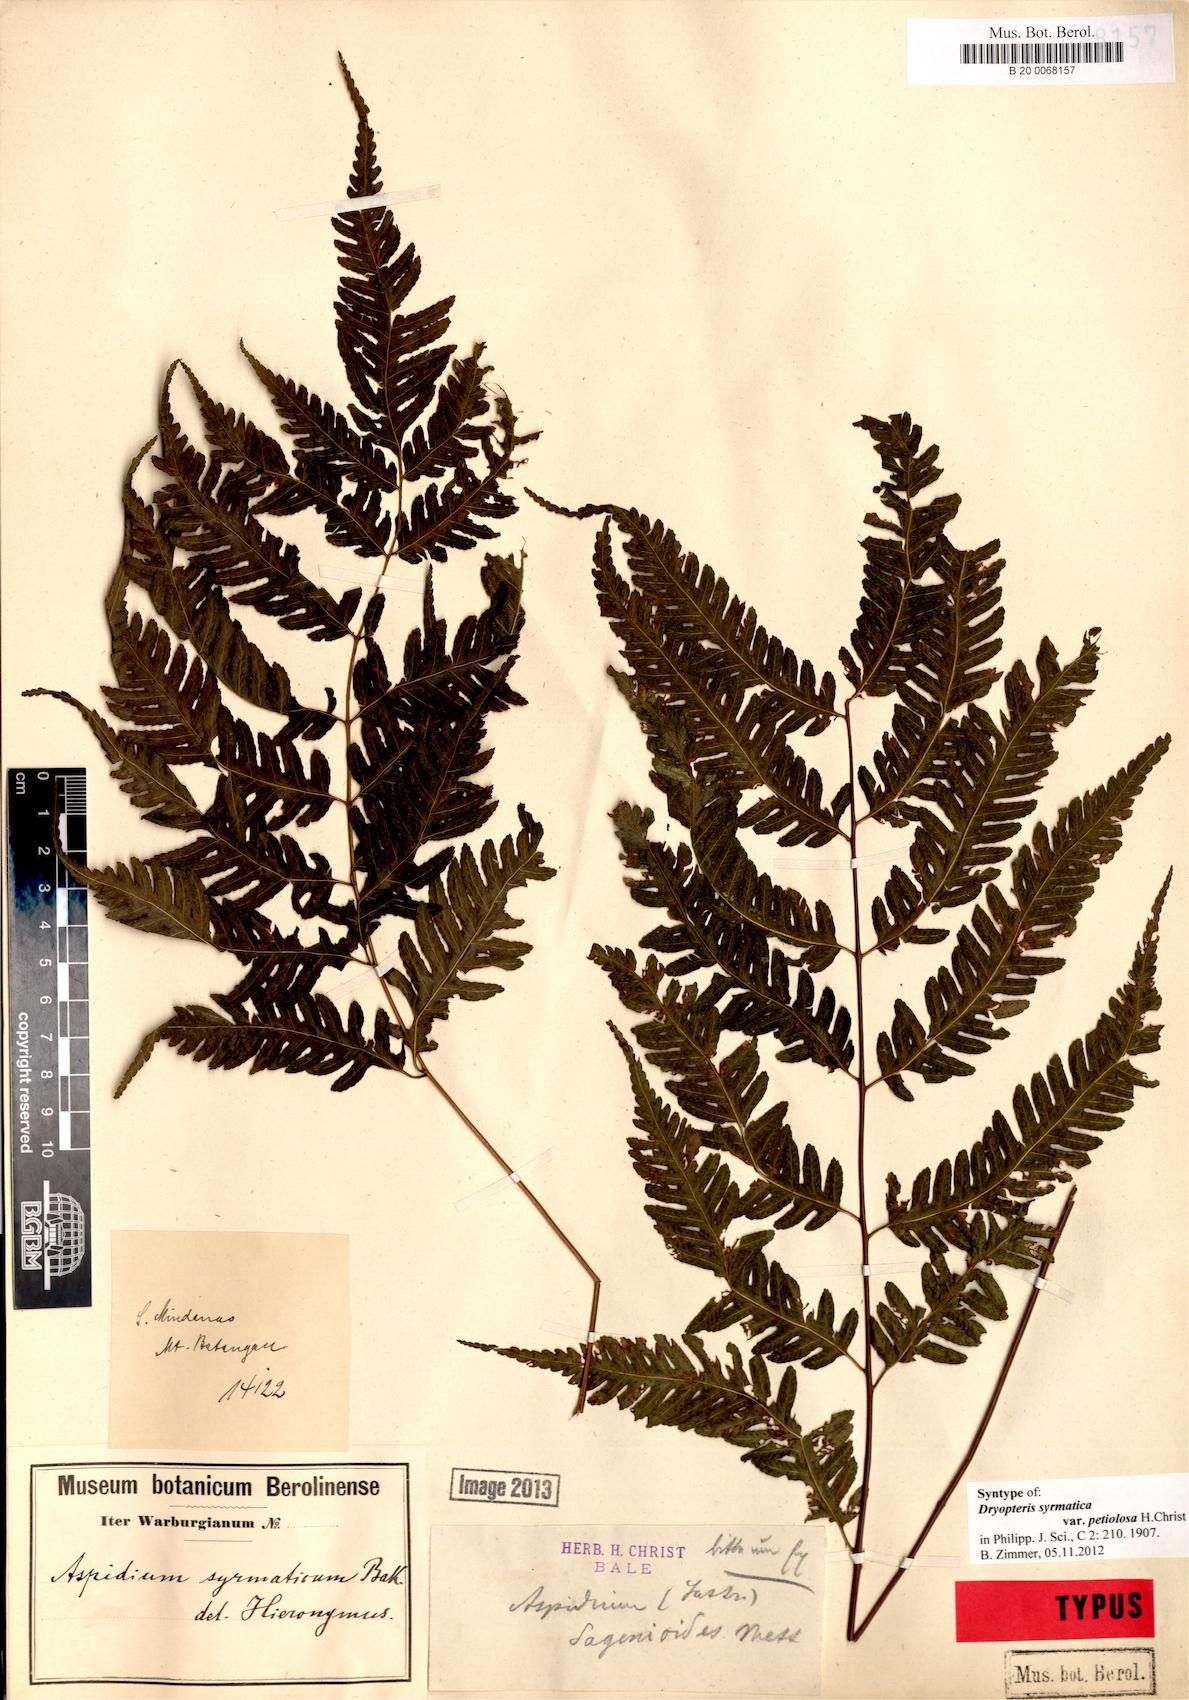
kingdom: Plantae
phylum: Tracheophyta
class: Polypodiopsida
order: Polypodiales
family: Tectariaceae
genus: Pteridrys
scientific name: Pteridrys syrmatica
